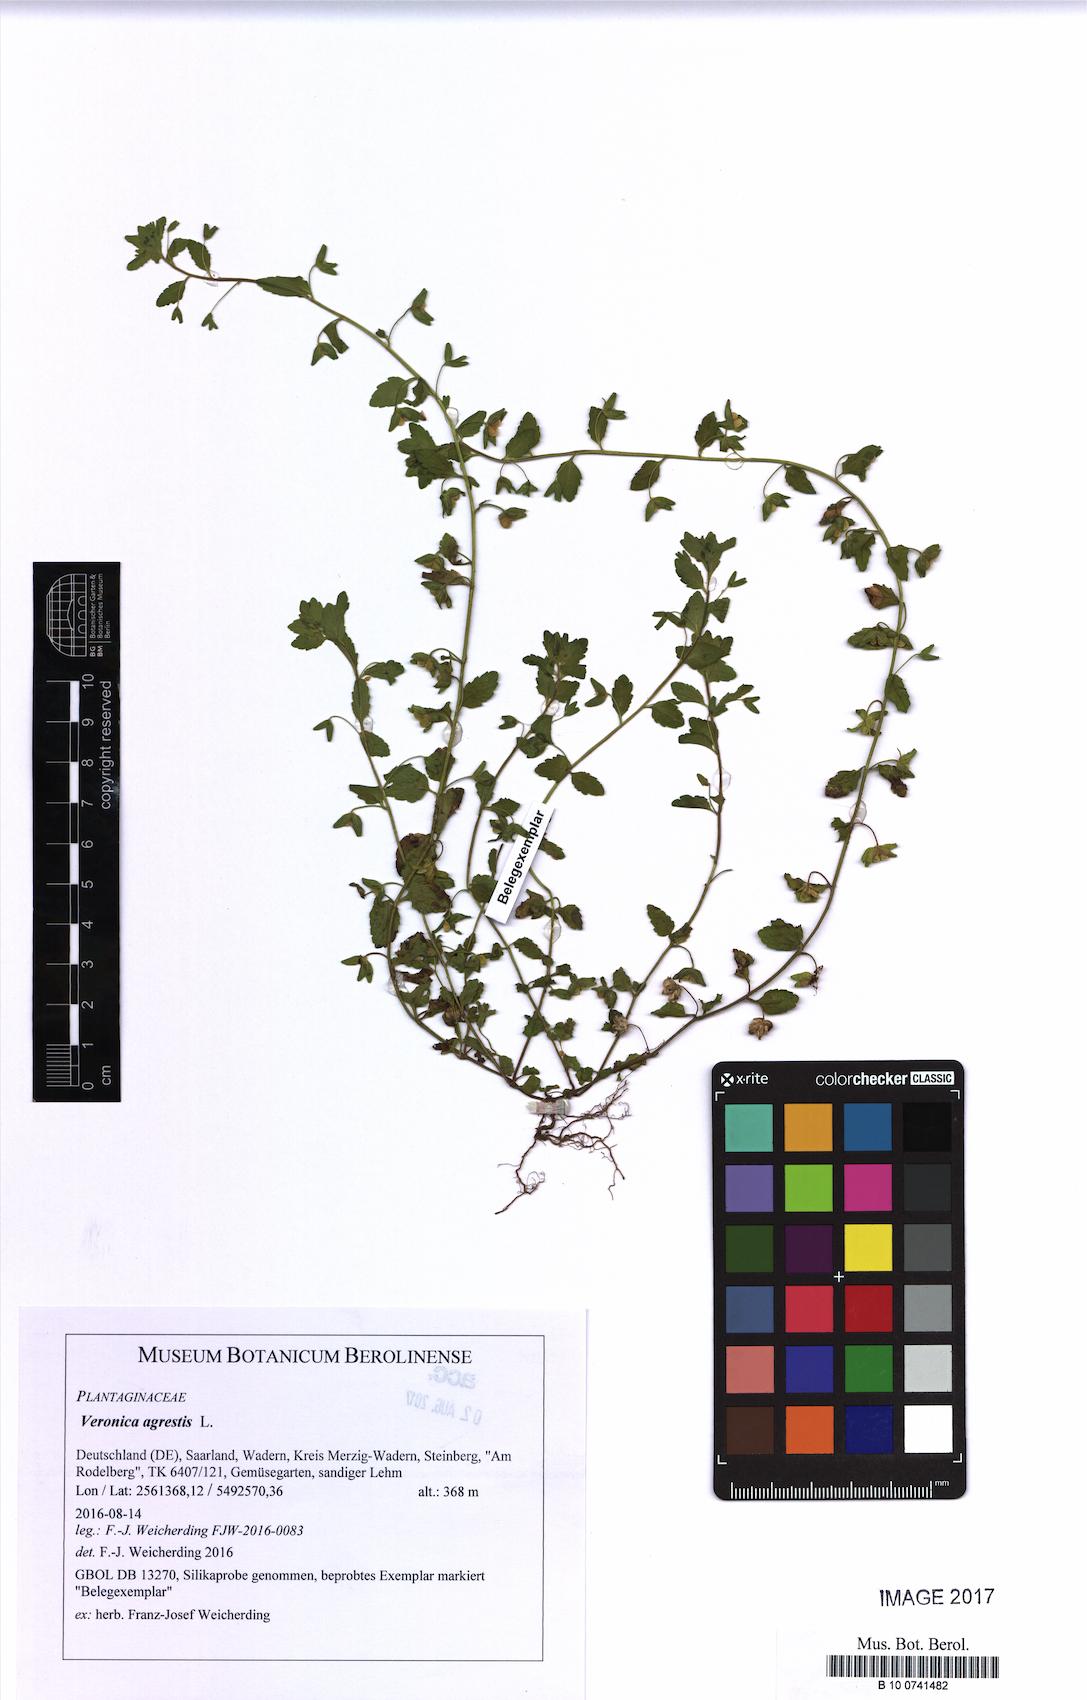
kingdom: Plantae
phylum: Tracheophyta
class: Magnoliopsida
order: Lamiales
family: Plantaginaceae
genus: Veronica
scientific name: Veronica agrestis
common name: Green field-speedwell
